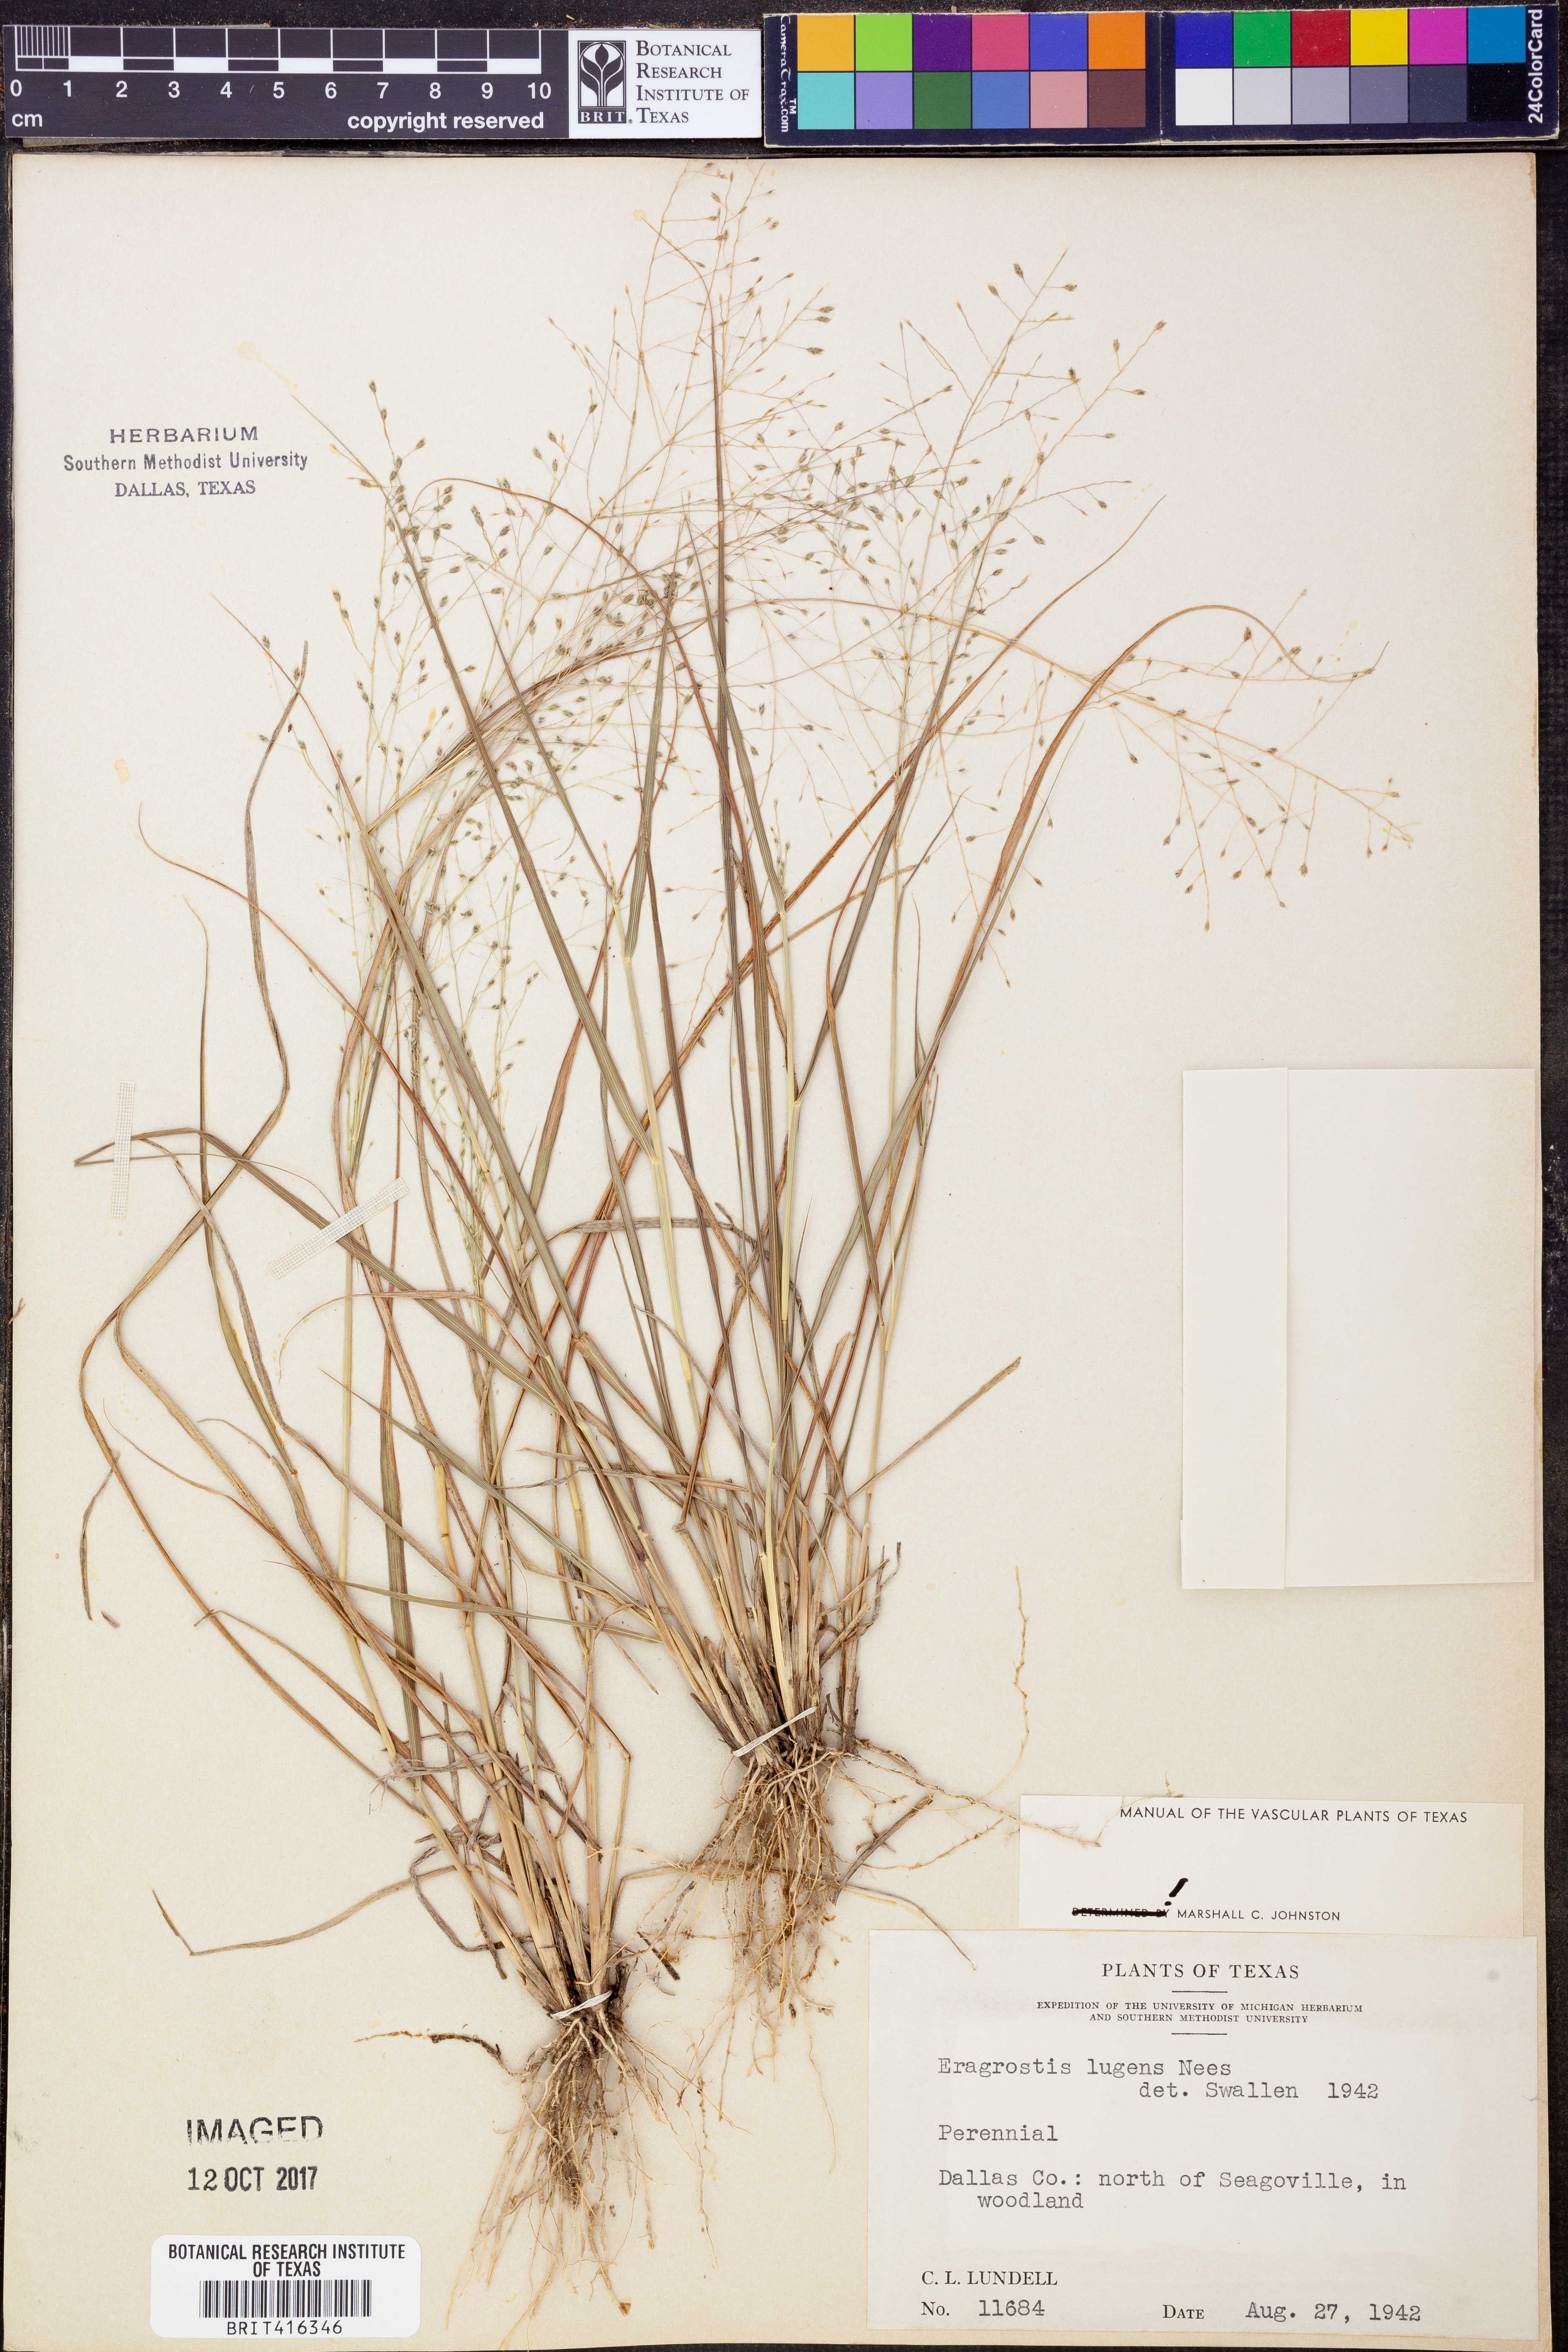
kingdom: Plantae
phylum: Tracheophyta
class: Liliopsida
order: Poales
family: Poaceae
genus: Eragrostis
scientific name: Eragrostis capillaris
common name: Hair-like lovegrass
